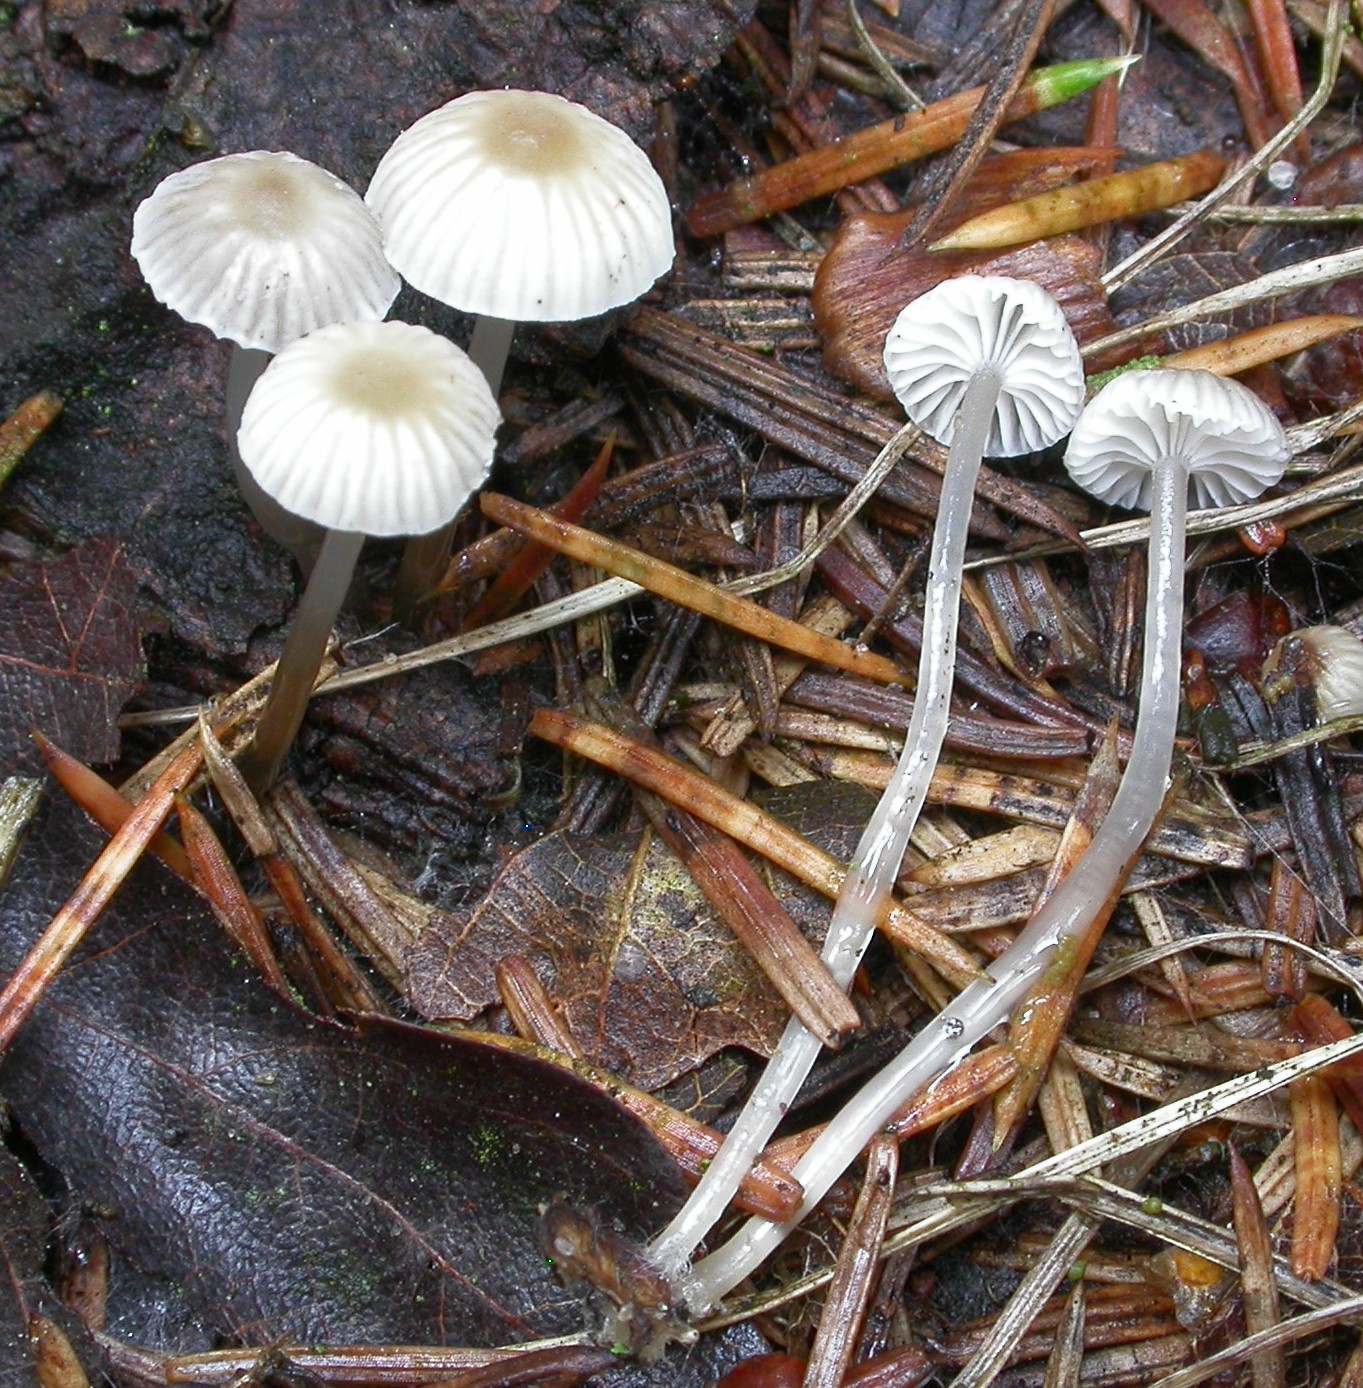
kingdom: Fungi
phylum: Basidiomycota
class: Agaricomycetes
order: Agaricales
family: Mycenaceae
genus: Roridomyces
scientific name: Roridomyces roridus
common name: slimfod
